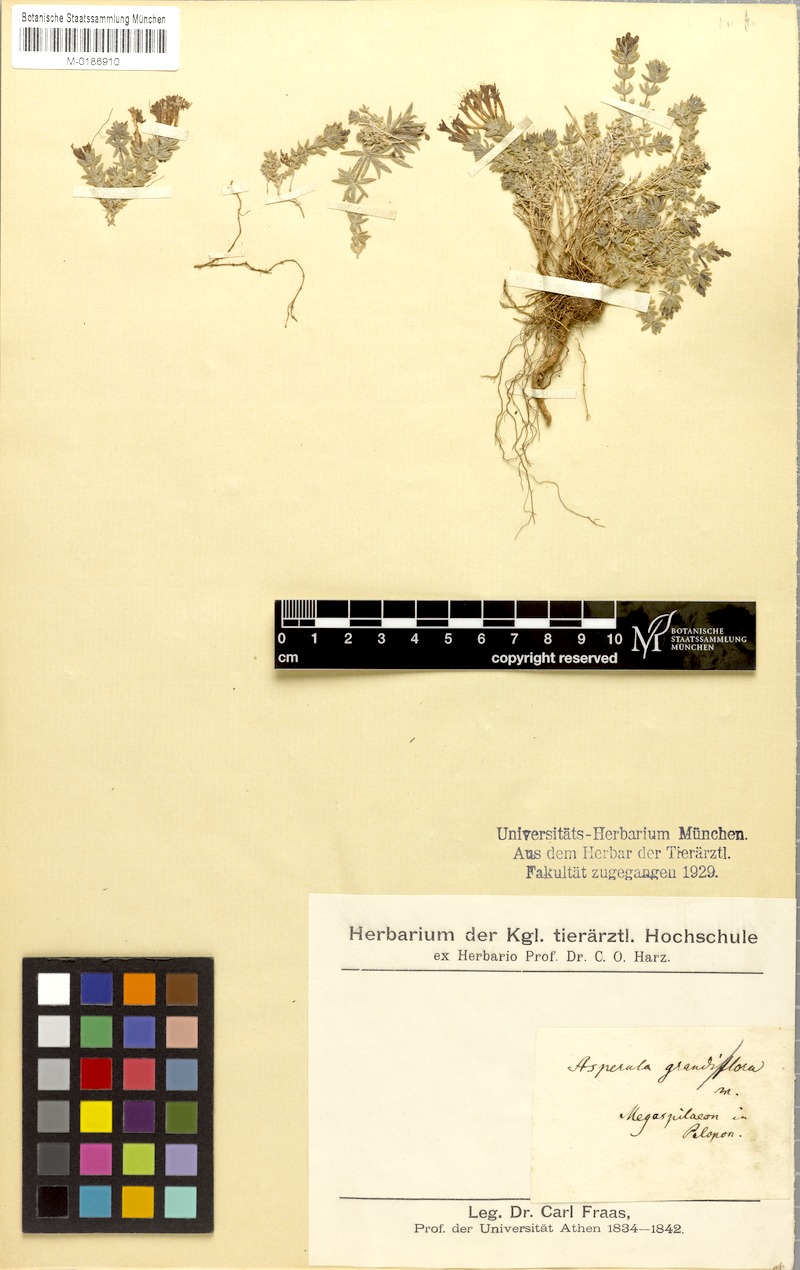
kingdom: Plantae
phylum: Tracheophyta
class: Magnoliopsida
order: Gentianales
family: Rubiaceae
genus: Asperula
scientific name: Asperula
